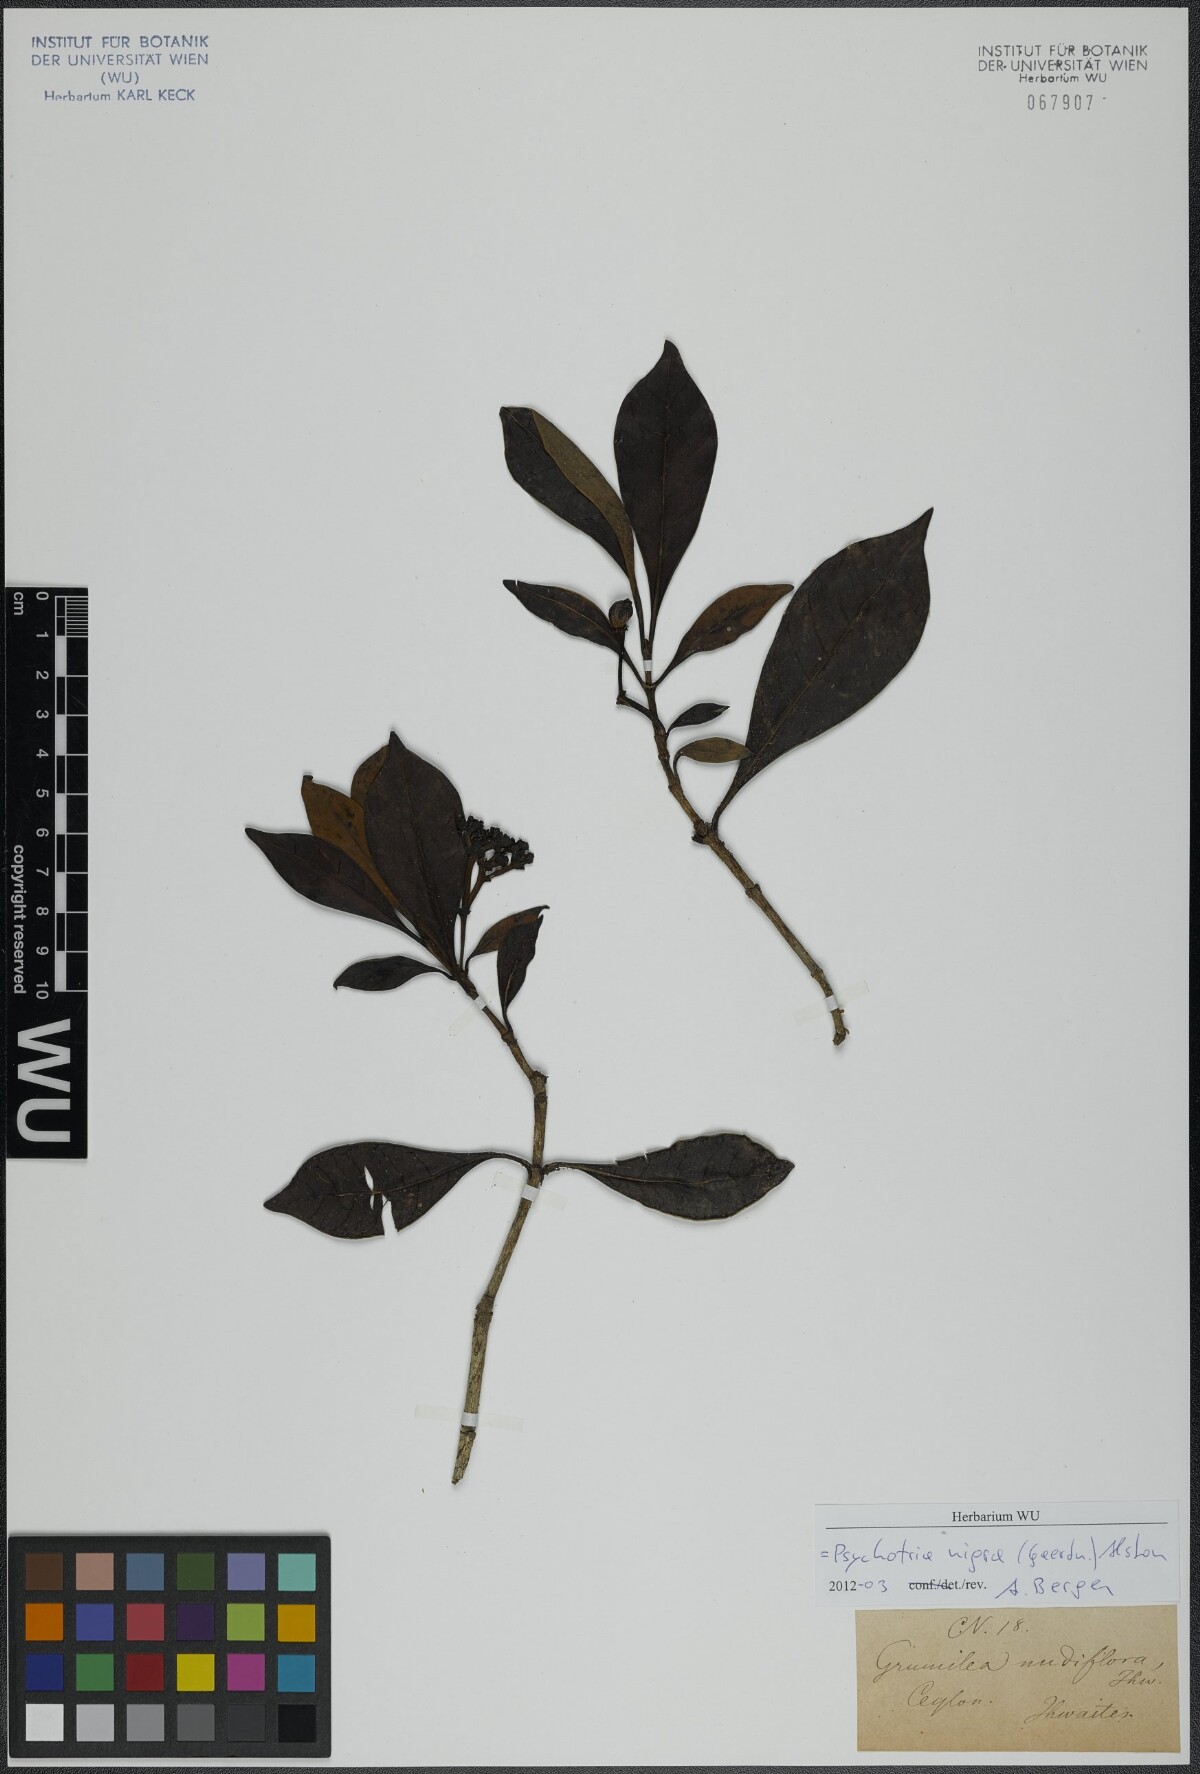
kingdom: Plantae
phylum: Tracheophyta
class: Magnoliopsida
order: Gentianales
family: Rubiaceae
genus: Psychotria
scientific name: Psychotria nigra
